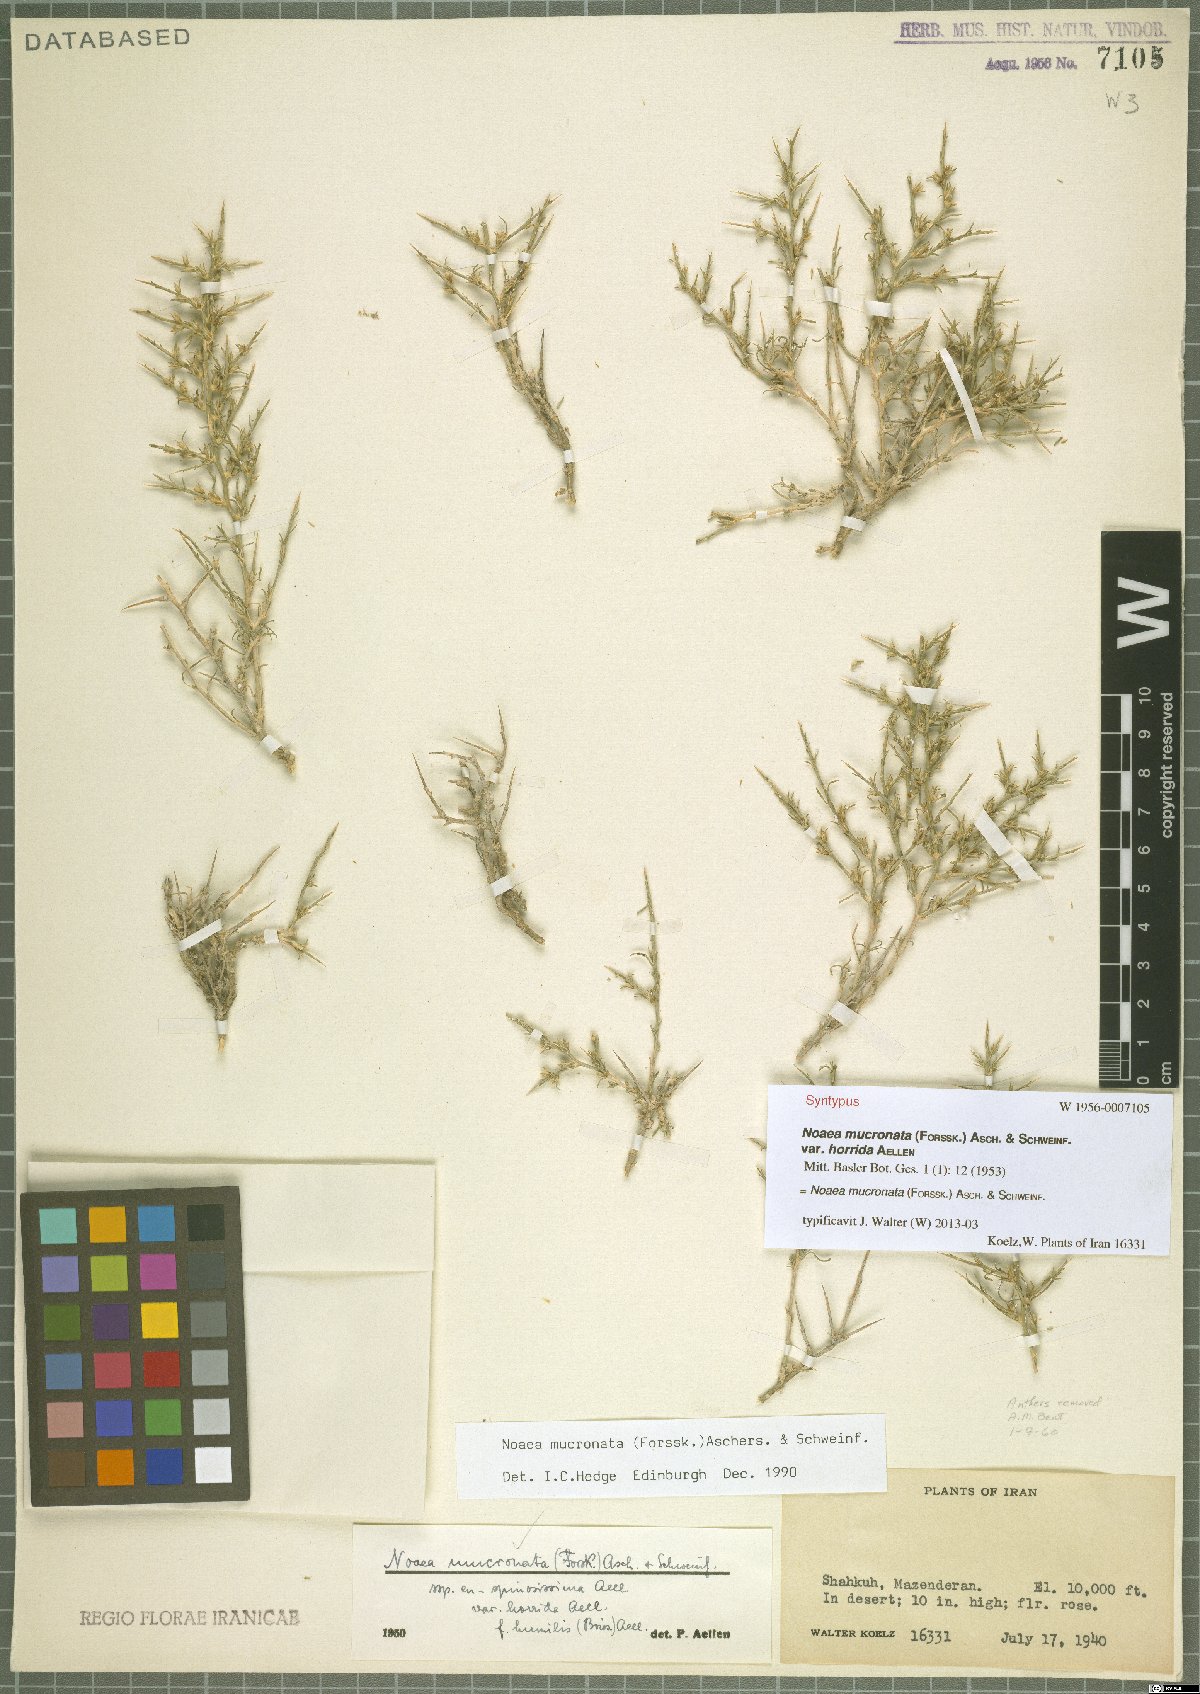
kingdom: Plantae
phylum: Tracheophyta
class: Magnoliopsida
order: Caryophyllales
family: Amaranthaceae
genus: Noaea
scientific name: Noaea mucronata
